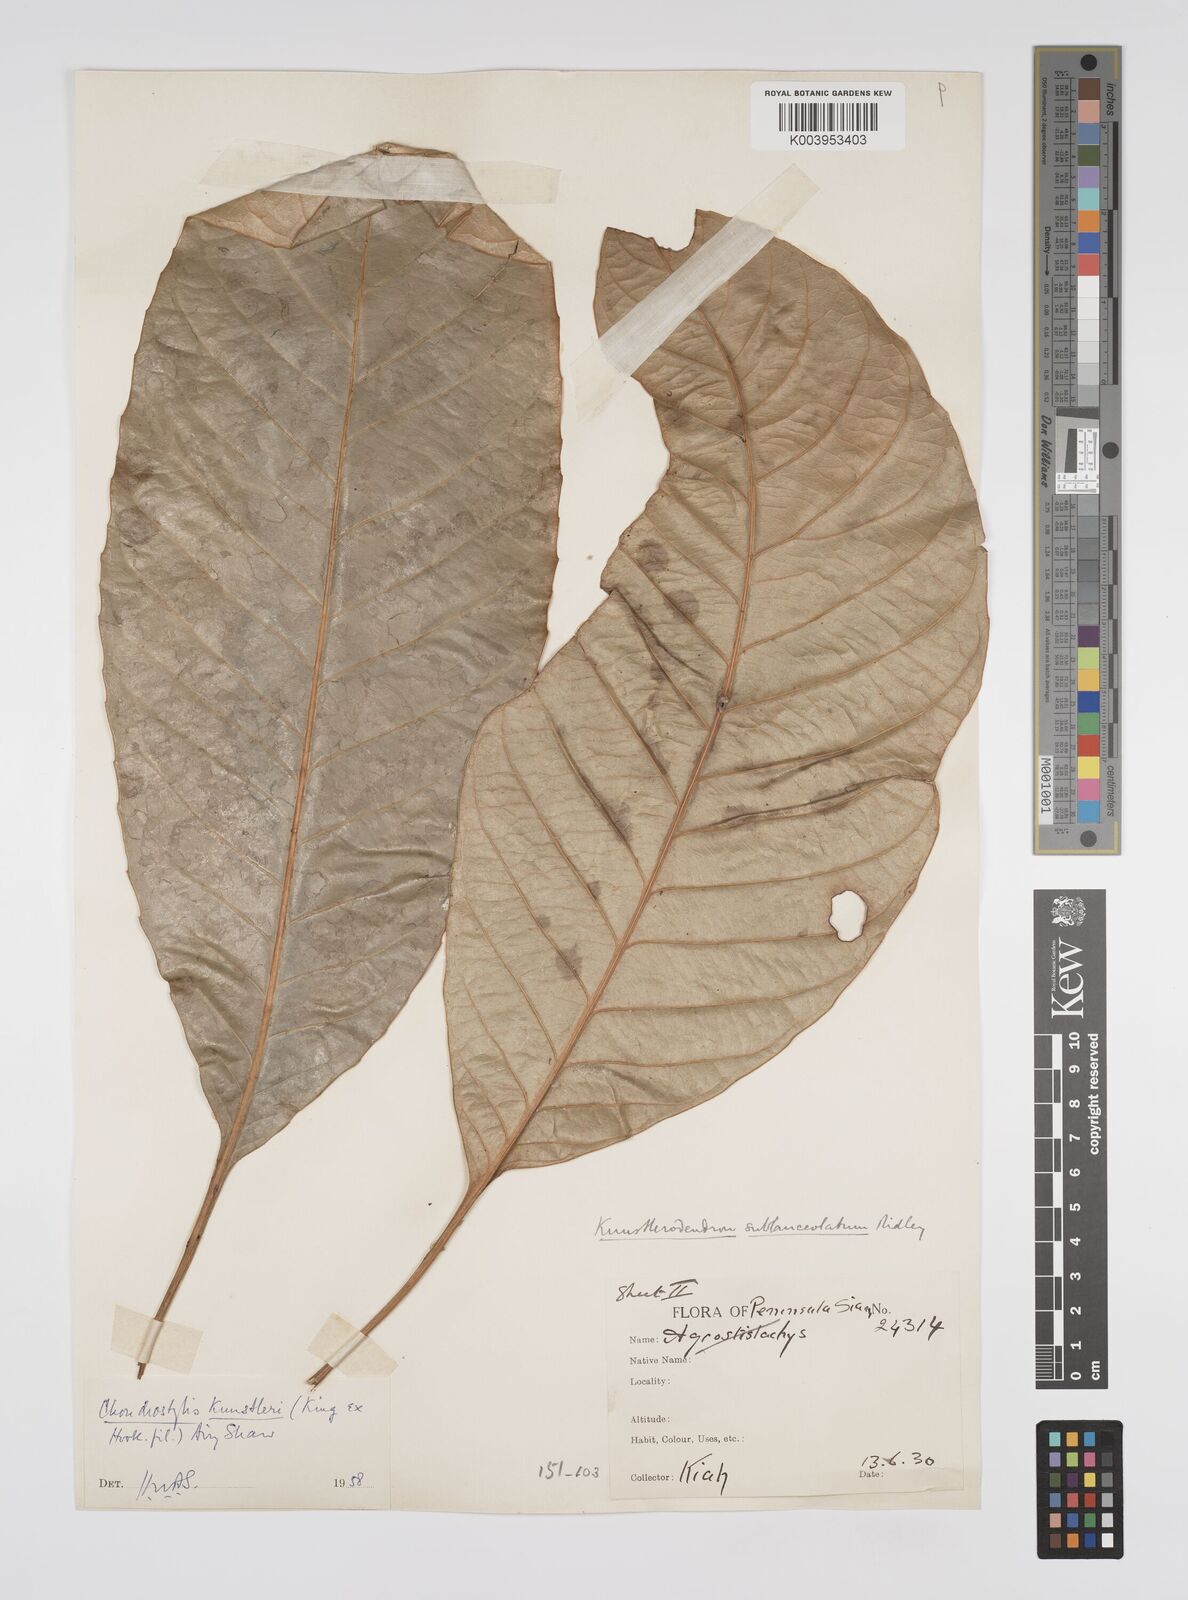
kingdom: Plantae
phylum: Tracheophyta
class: Magnoliopsida
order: Malpighiales
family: Euphorbiaceae
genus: Chondrostylis
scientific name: Chondrostylis kunstleri
